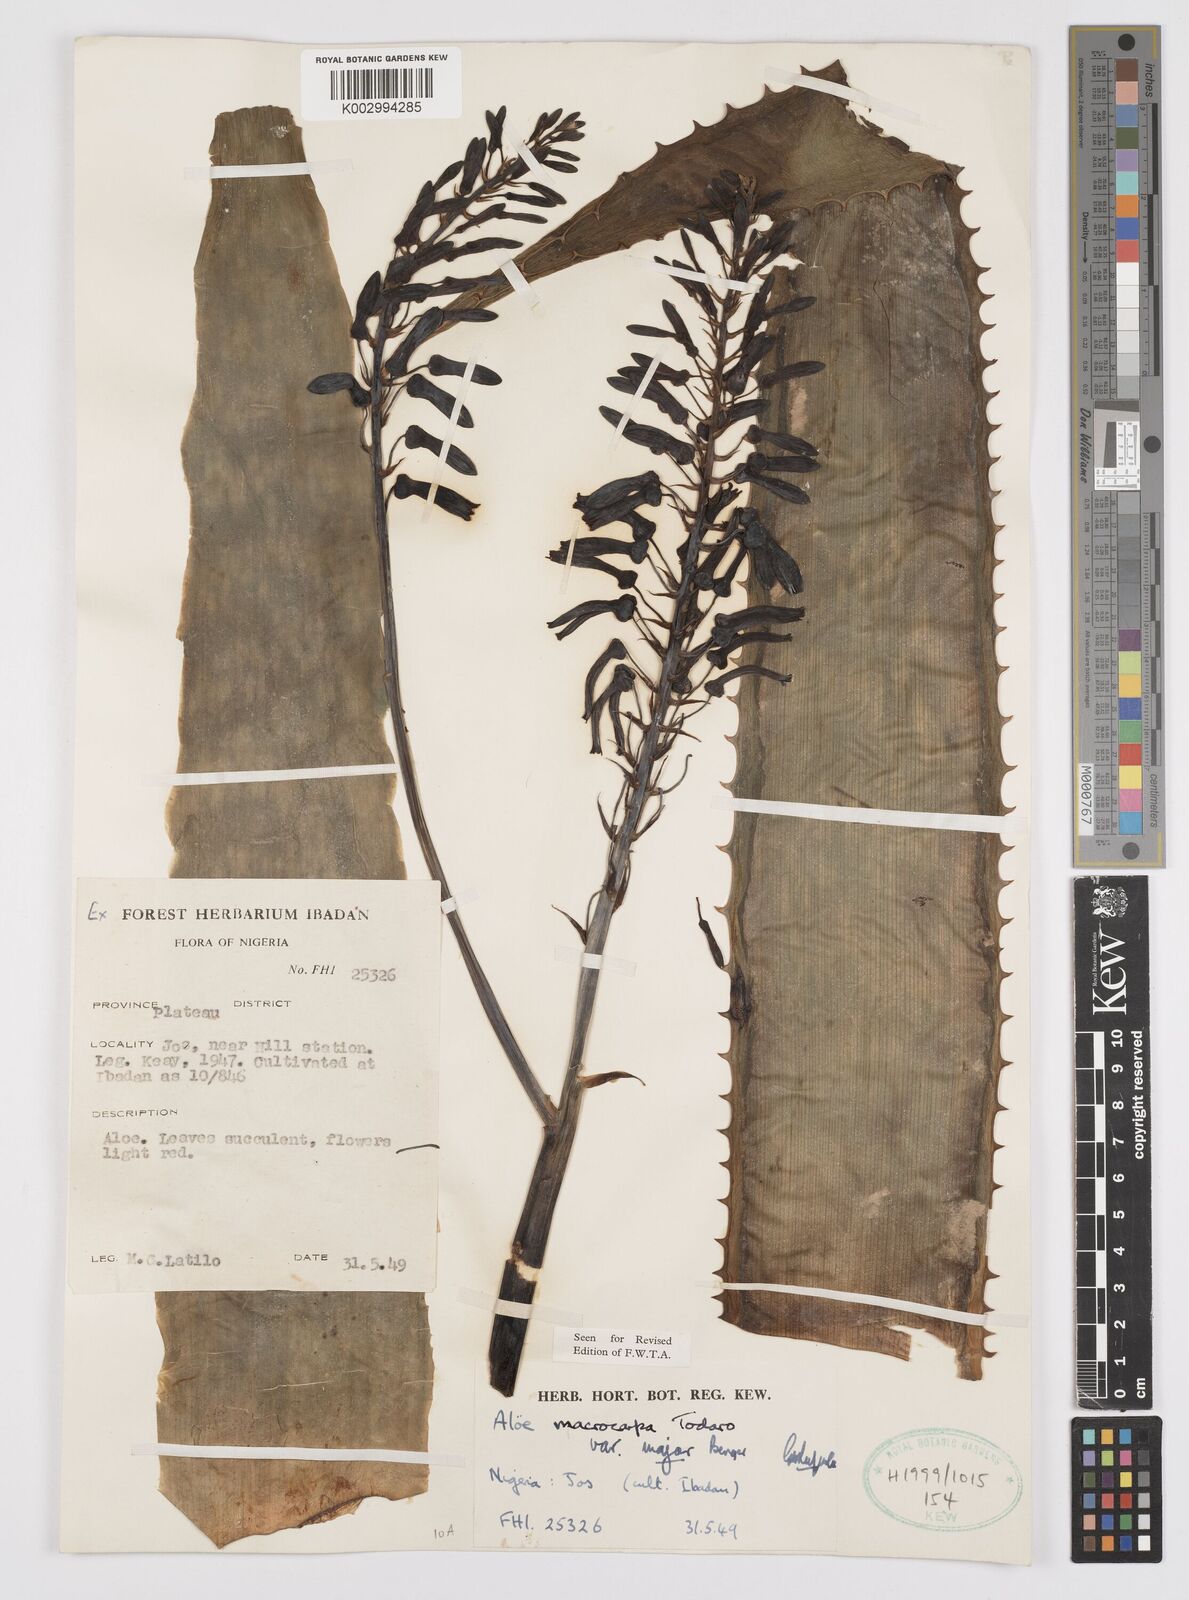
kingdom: Plantae
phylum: Tracheophyta
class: Liliopsida
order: Asparagales
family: Asphodelaceae
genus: Aloe
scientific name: Aloe macrocarpa
